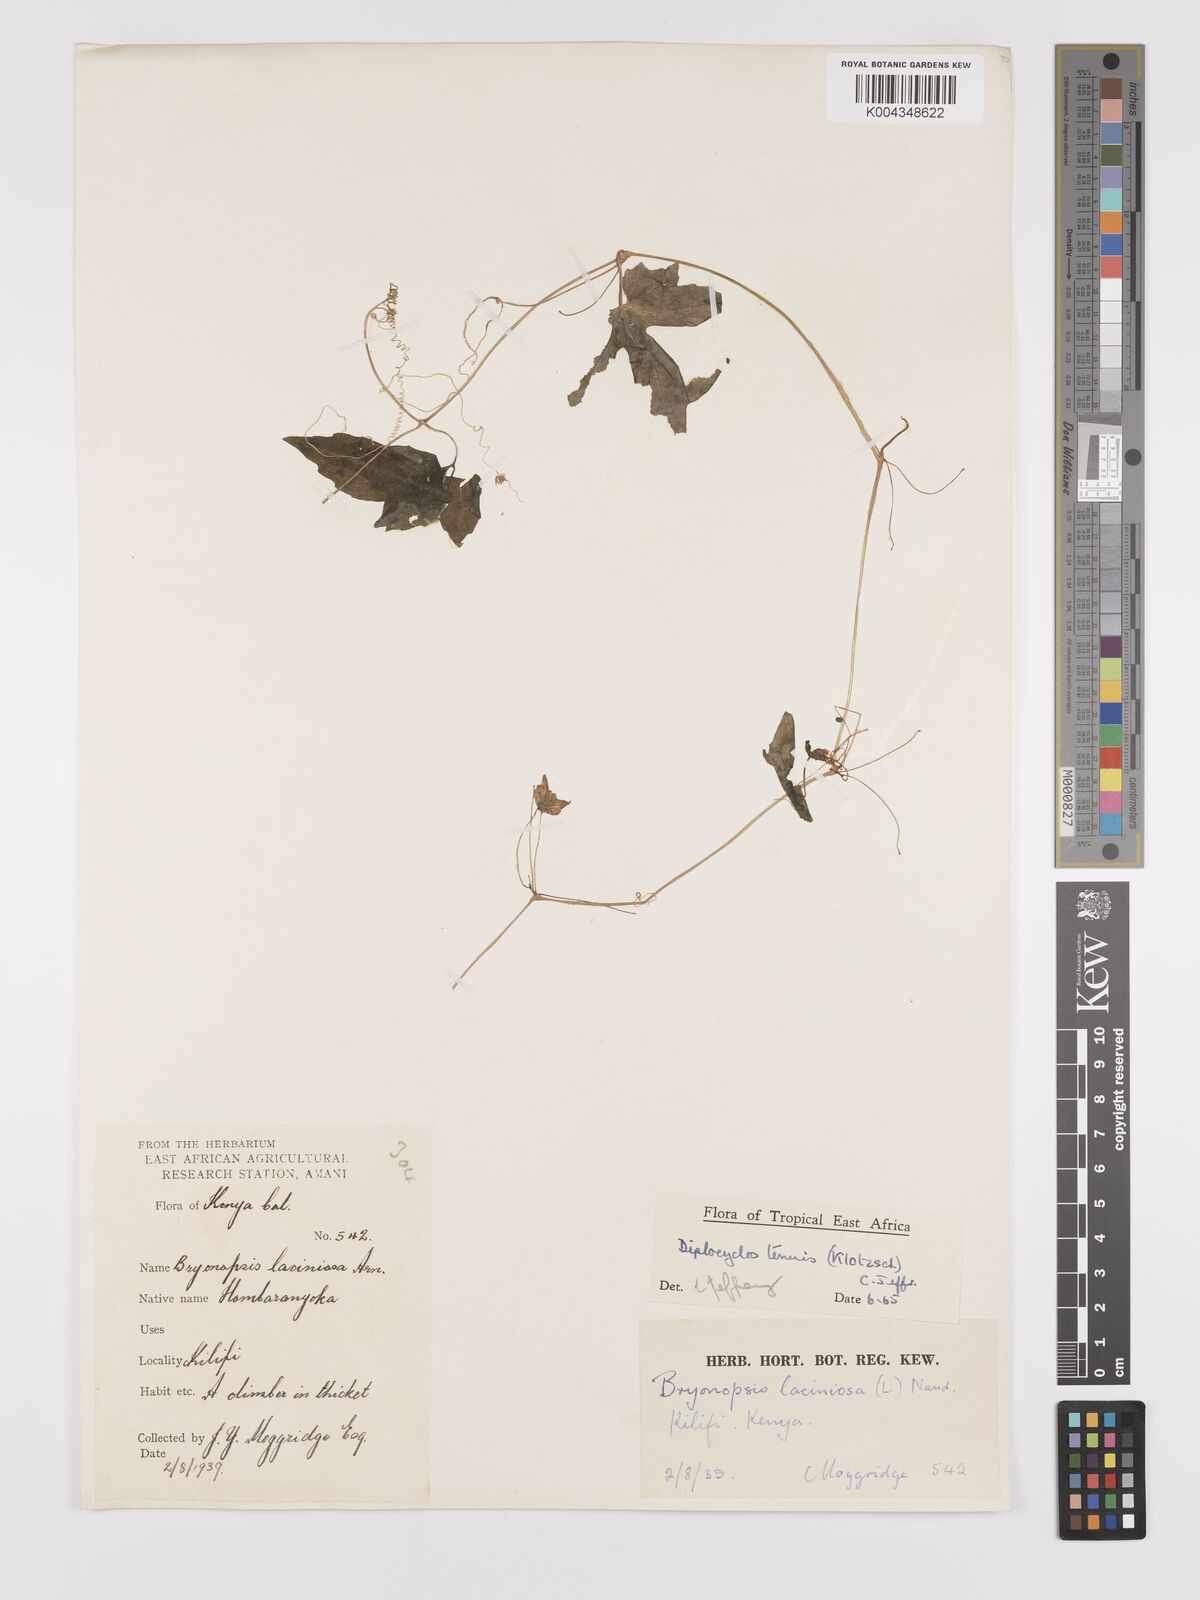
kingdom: Plantae
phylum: Tracheophyta
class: Magnoliopsida
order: Cucurbitales
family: Cucurbitaceae
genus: Diplocyclos
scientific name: Diplocyclos tenuis
